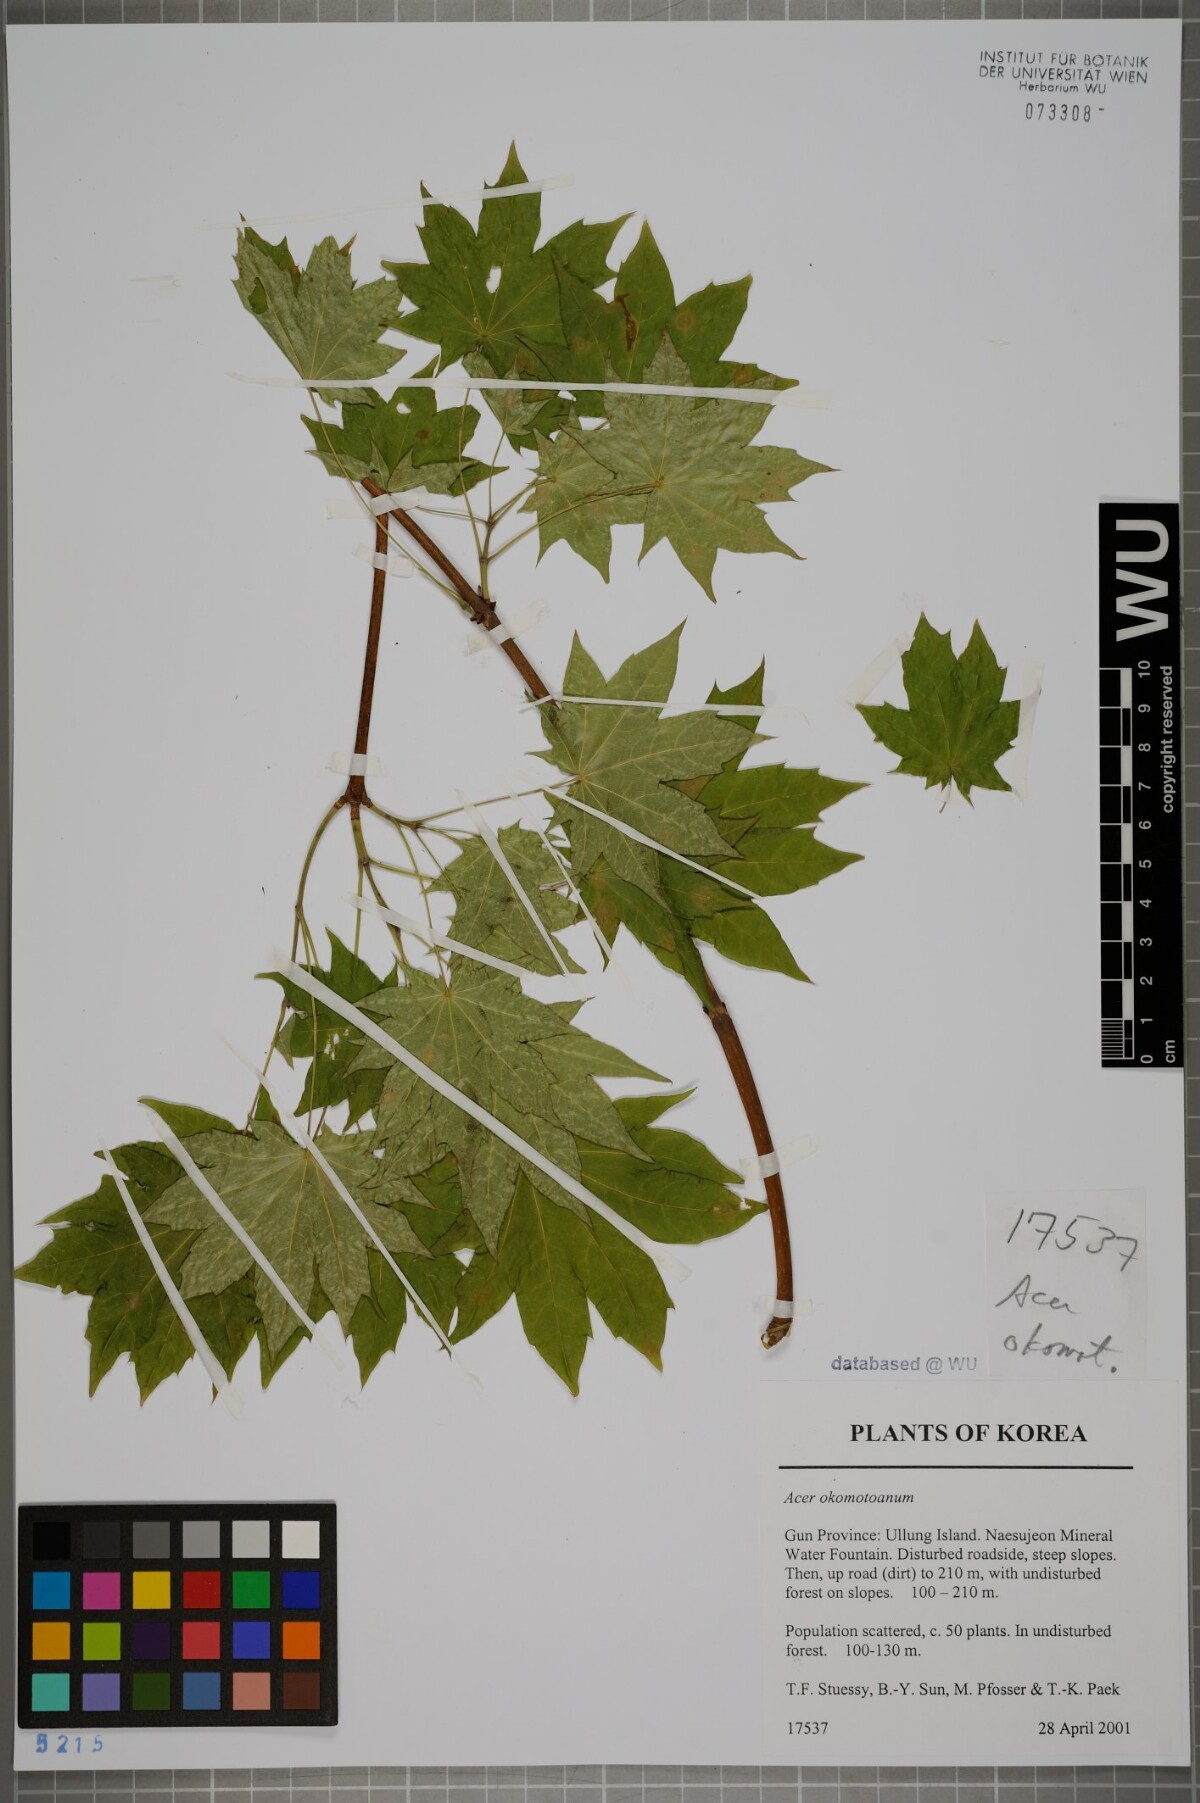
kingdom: Plantae
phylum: Tracheophyta
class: Magnoliopsida
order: Sapindales
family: Sapindaceae
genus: Acer
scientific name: Acer pictum
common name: The painted maple
